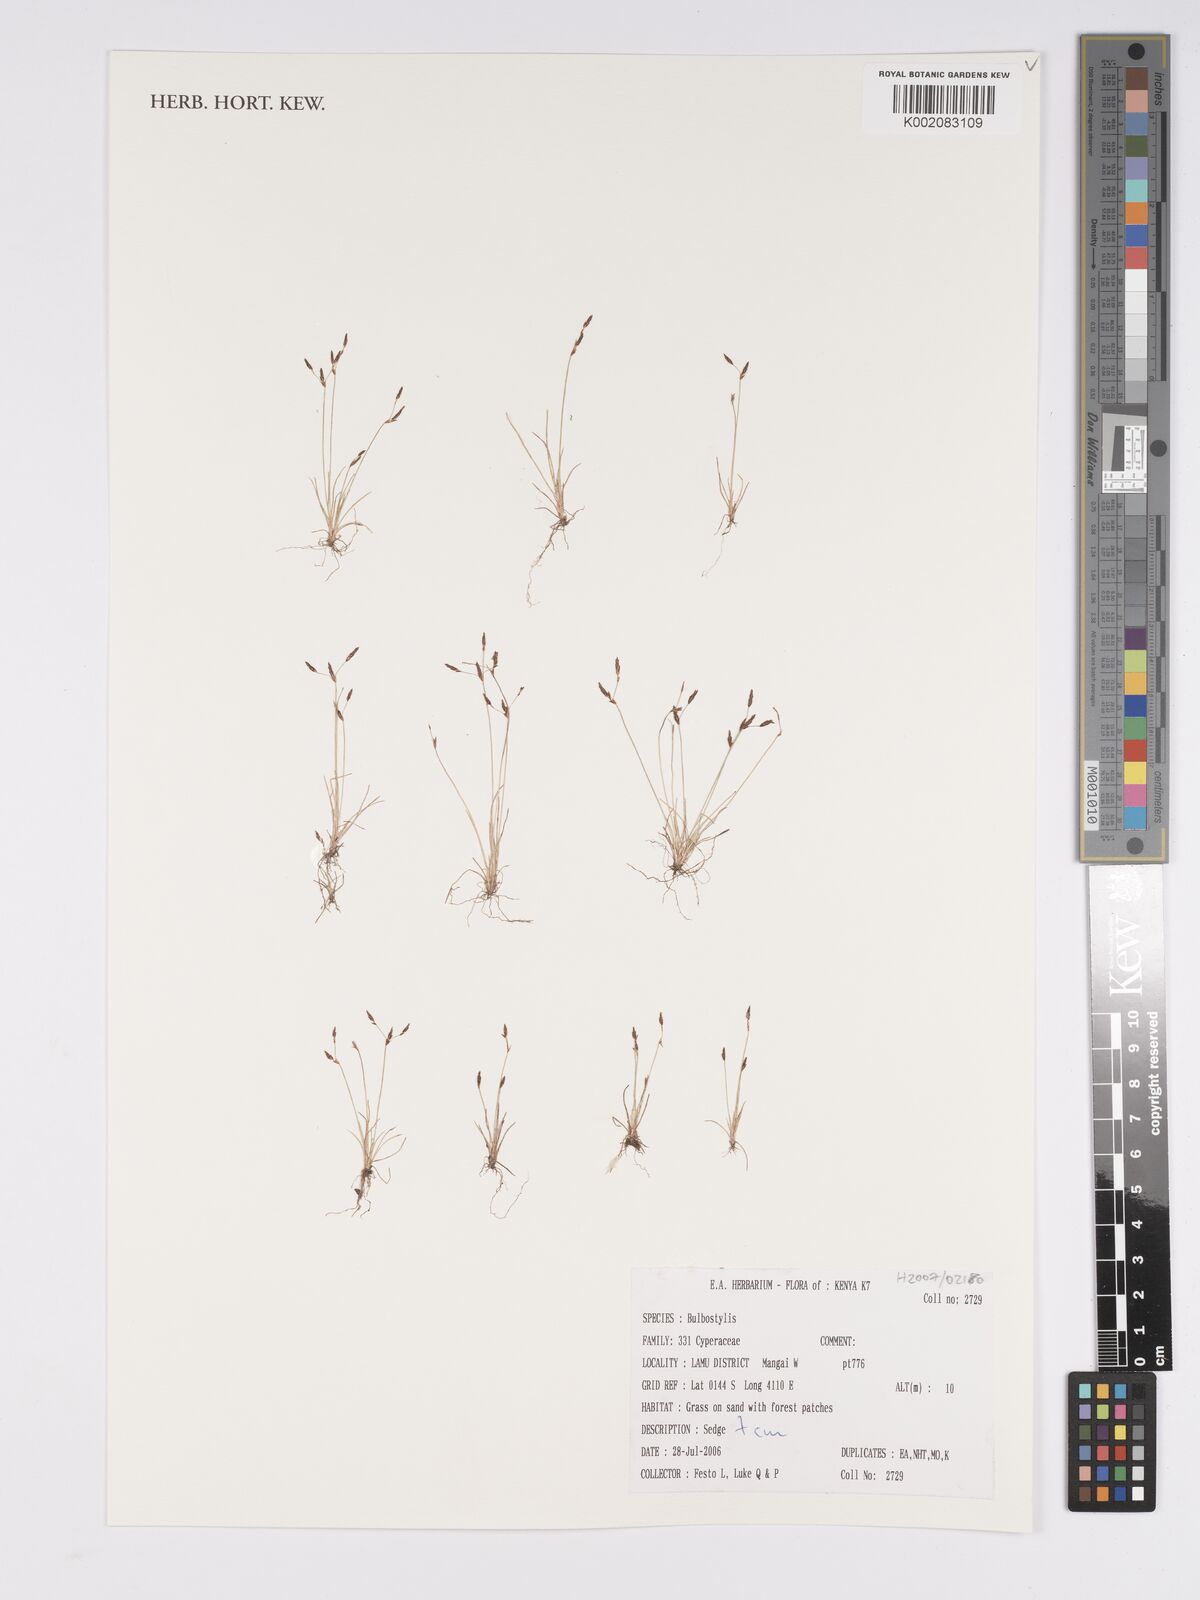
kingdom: Plantae
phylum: Tracheophyta
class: Magnoliopsida
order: Asterales
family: Asteraceae
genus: Bulbostylis
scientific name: Bulbostylis
